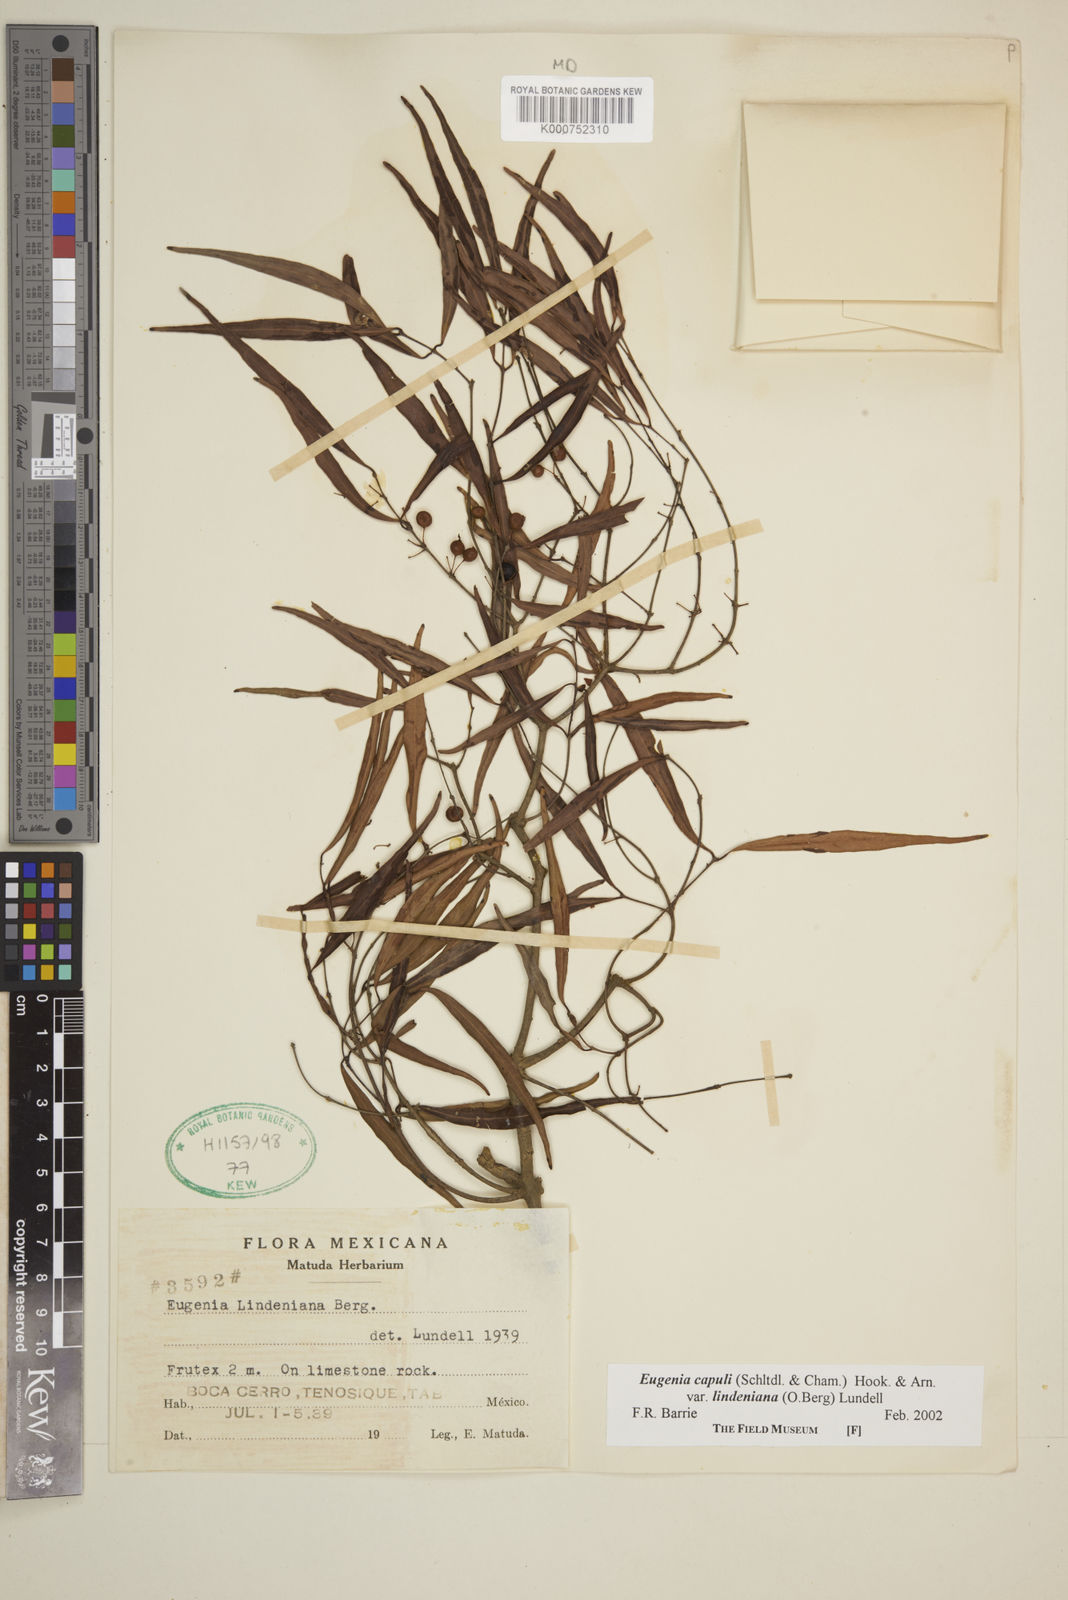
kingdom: Plantae
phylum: Tracheophyta
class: Magnoliopsida
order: Myrtales
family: Myrtaceae
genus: Eugenia
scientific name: Eugenia capuli
